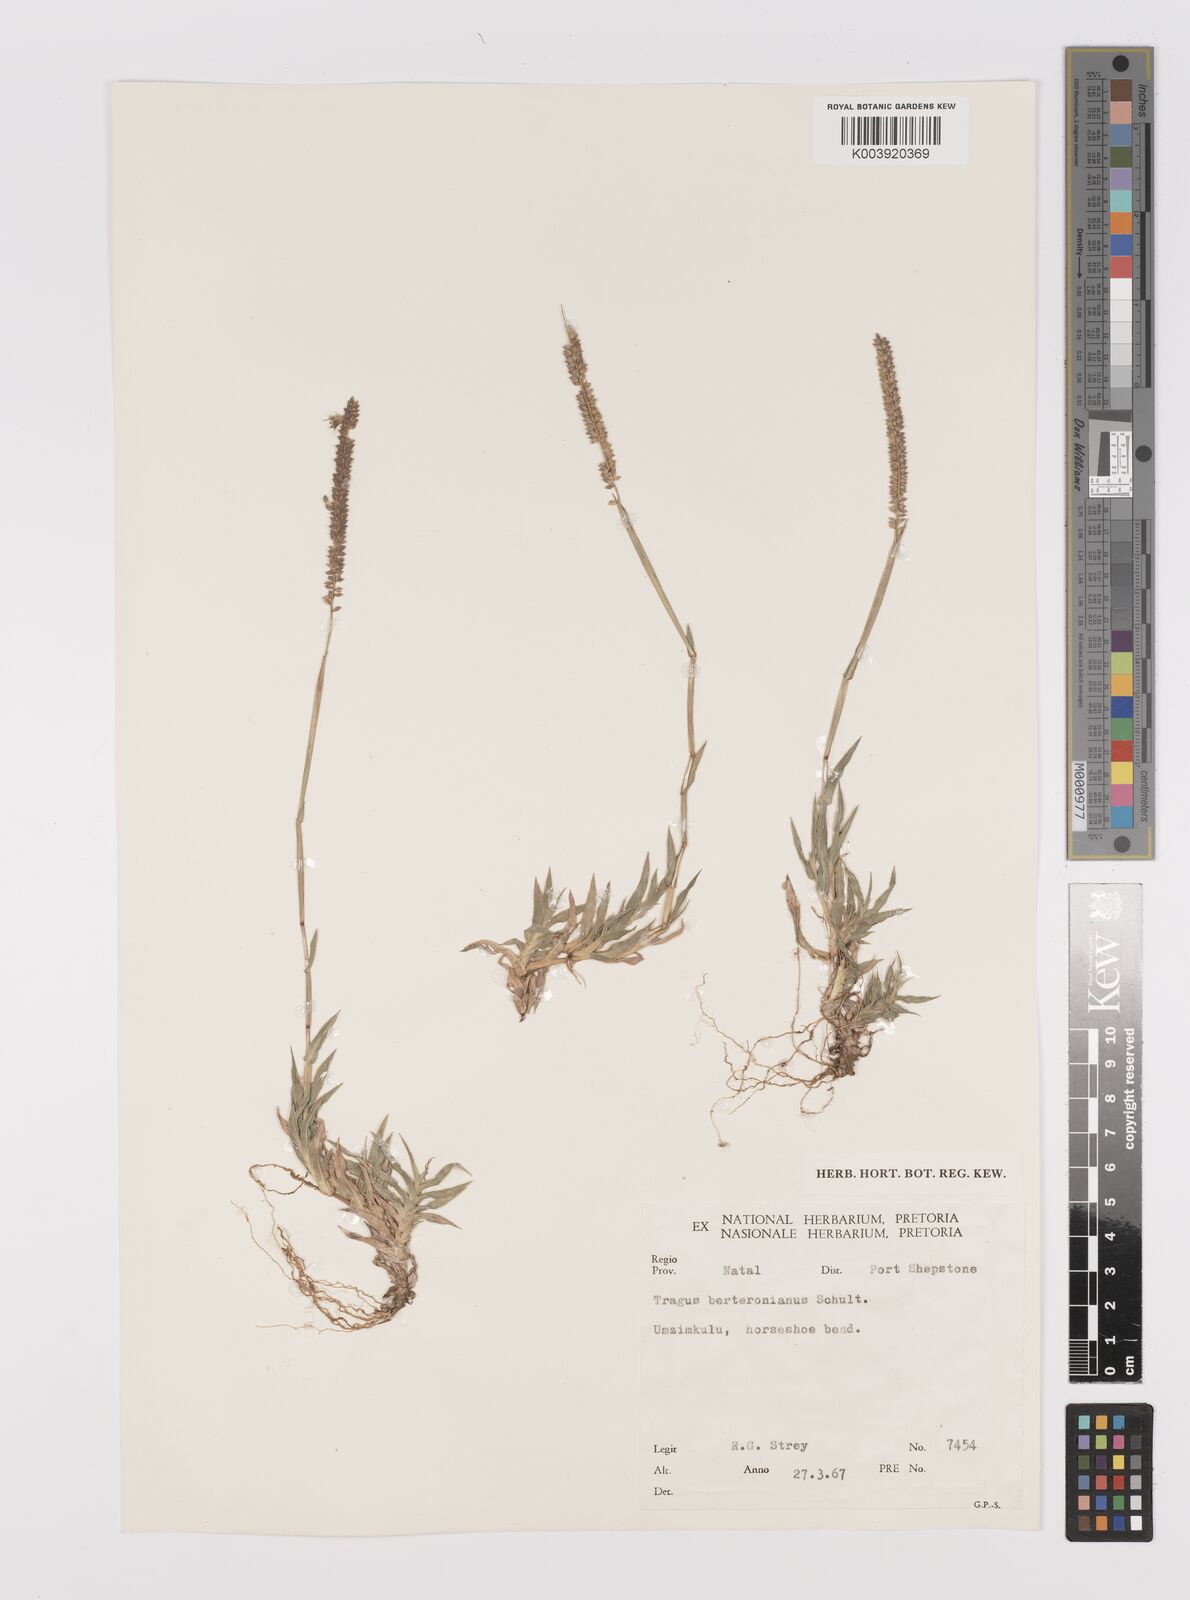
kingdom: Plantae
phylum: Tracheophyta
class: Liliopsida
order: Poales
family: Poaceae
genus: Tragus
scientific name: Tragus berteronianus
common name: African bur-grass
